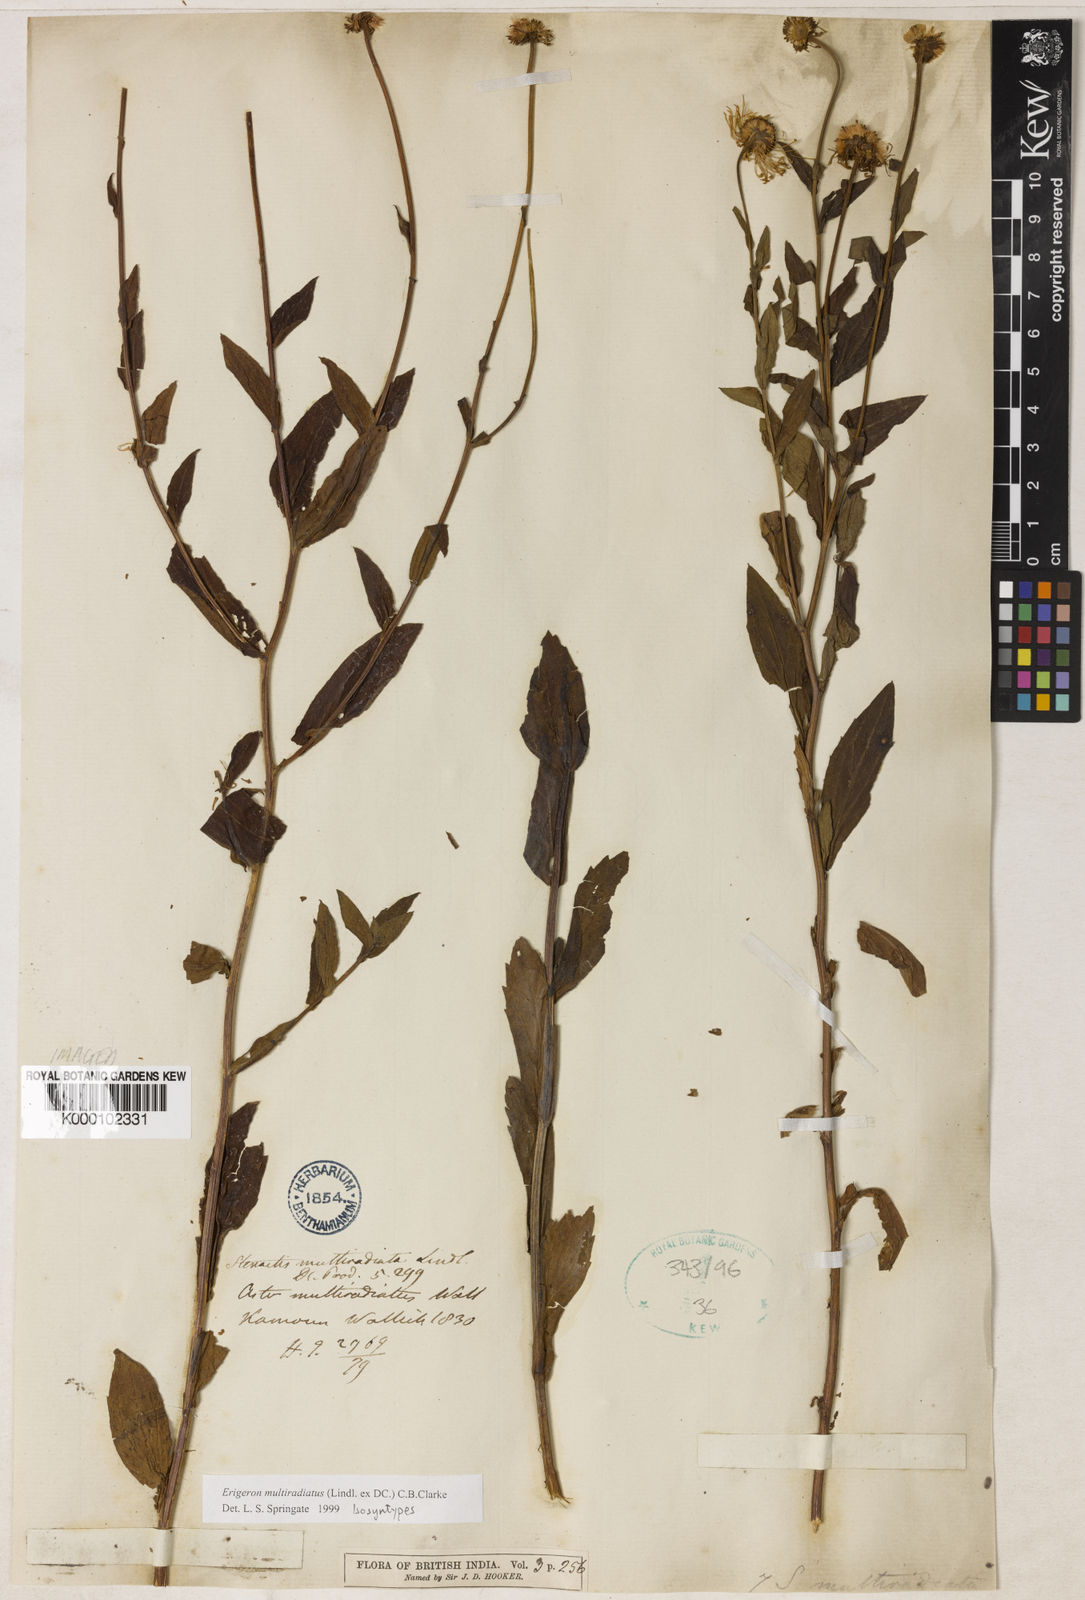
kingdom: Plantae
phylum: Tracheophyta
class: Magnoliopsida
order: Asterales
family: Asteraceae
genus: Erigeron
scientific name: Erigeron
